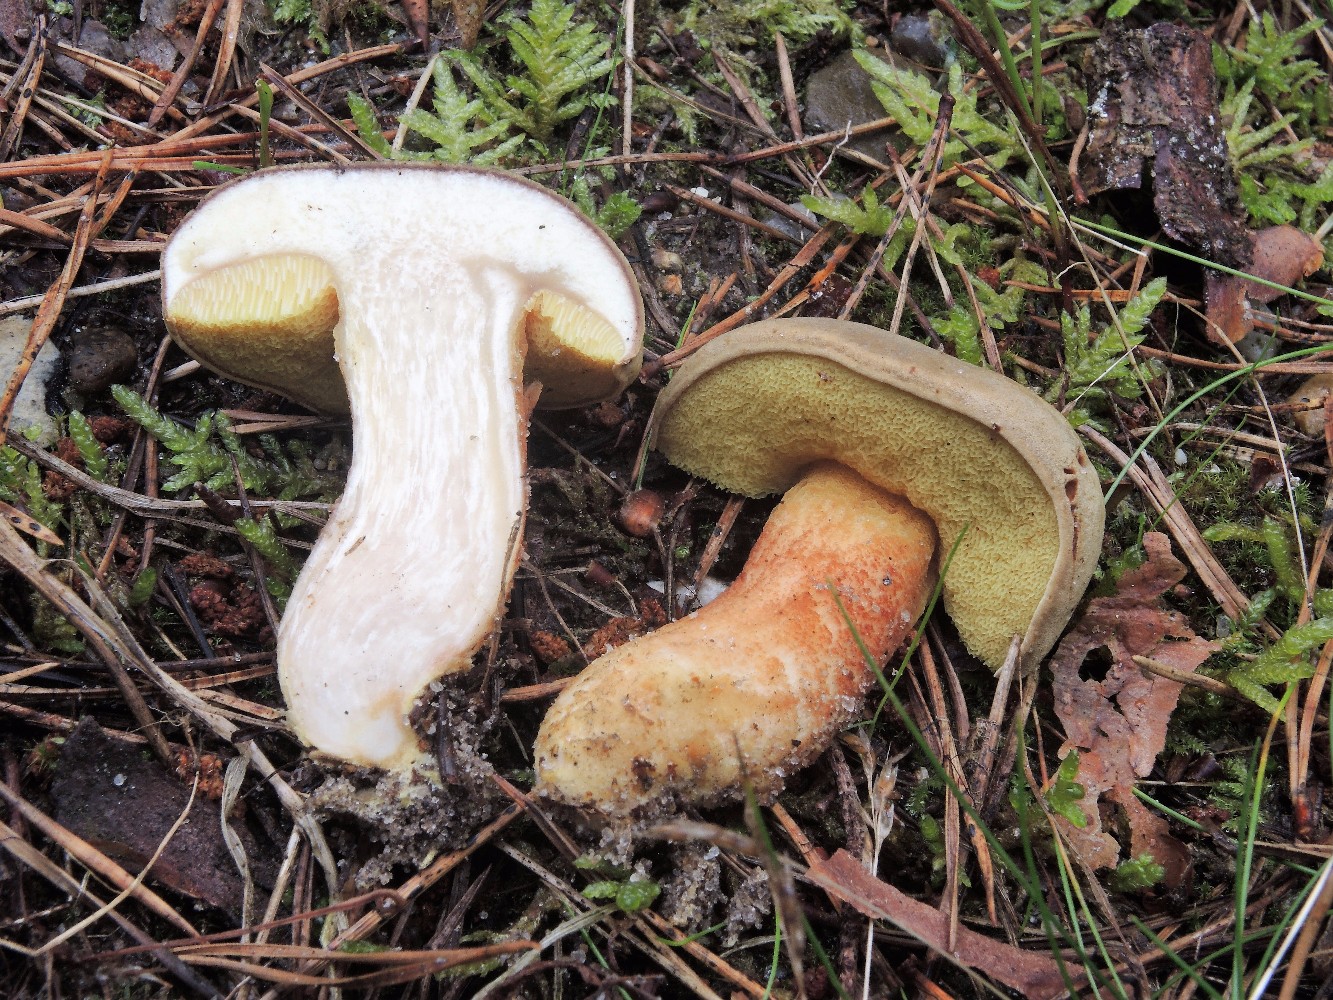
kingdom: Fungi
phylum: Basidiomycota
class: Agaricomycetes
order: Boletales
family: Boletaceae
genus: Xerocomus
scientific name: Xerocomus ferrugineus
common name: vaskeskinds-rørhat
